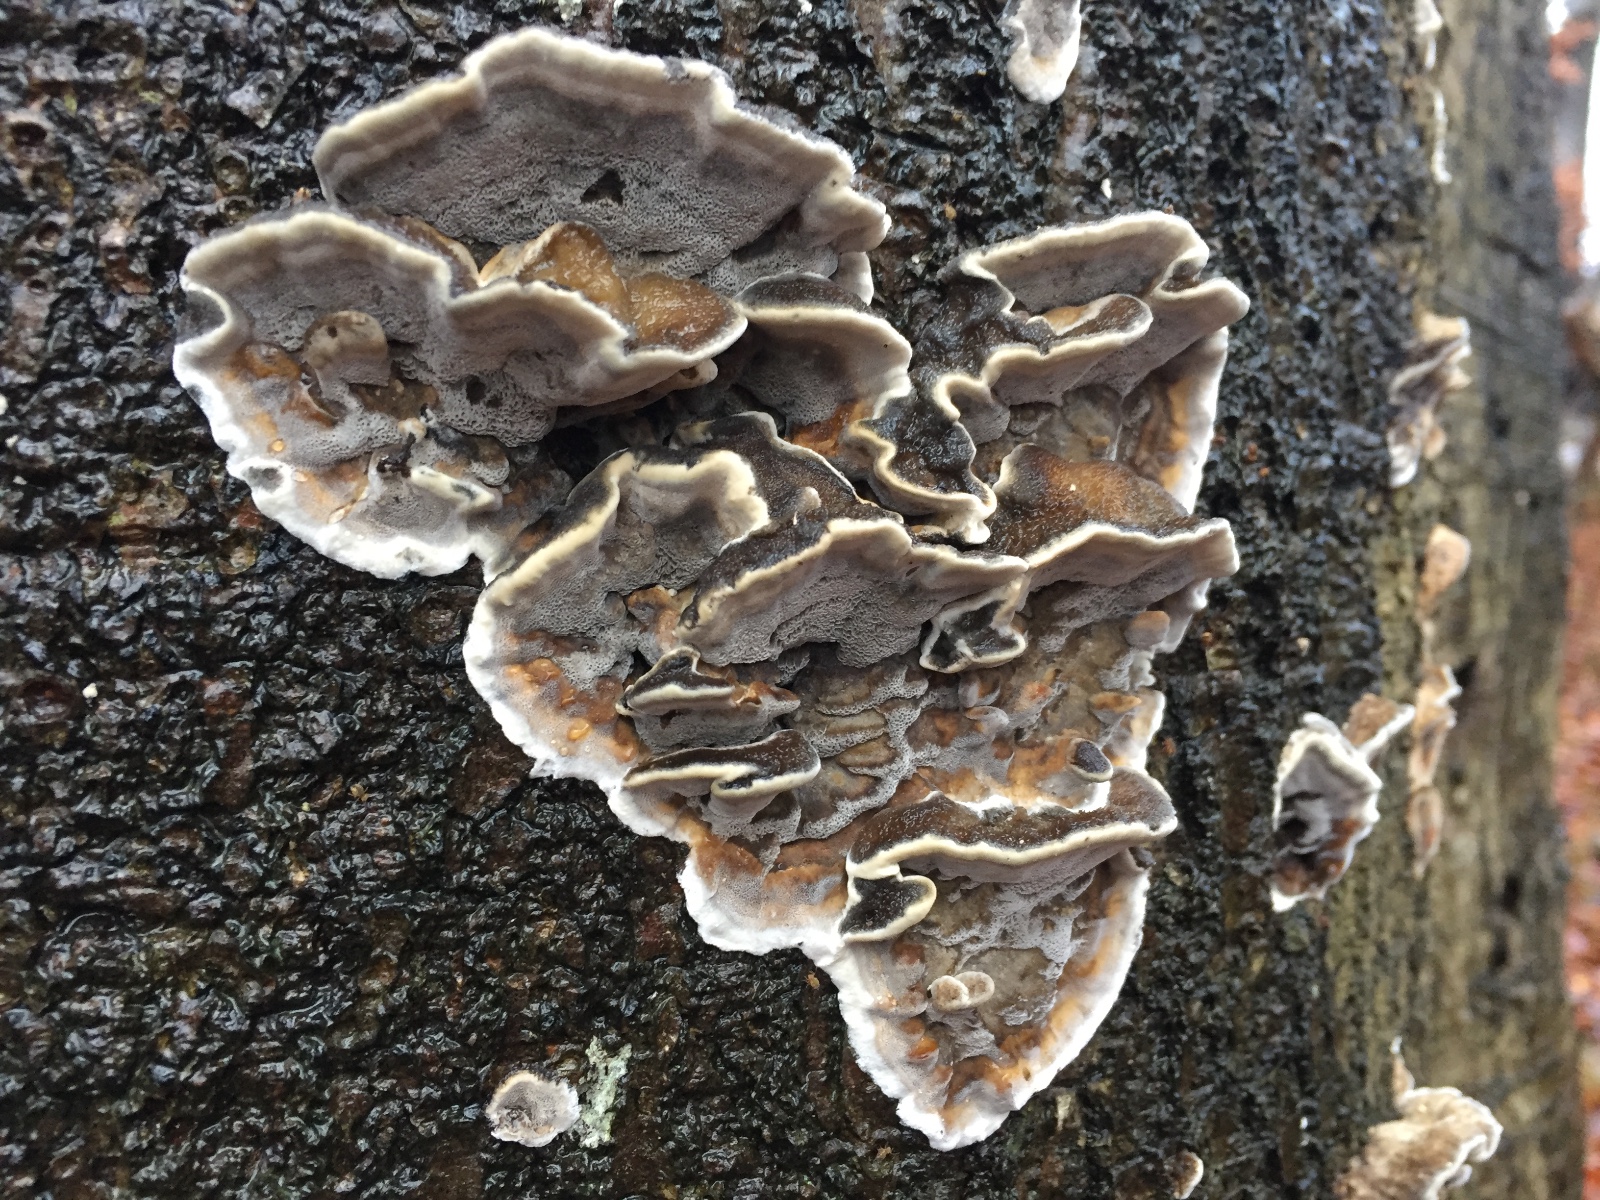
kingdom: Fungi
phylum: Basidiomycota
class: Agaricomycetes
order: Polyporales
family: Phanerochaetaceae
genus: Bjerkandera
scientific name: Bjerkandera adusta
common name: sveden sodporesvamp
